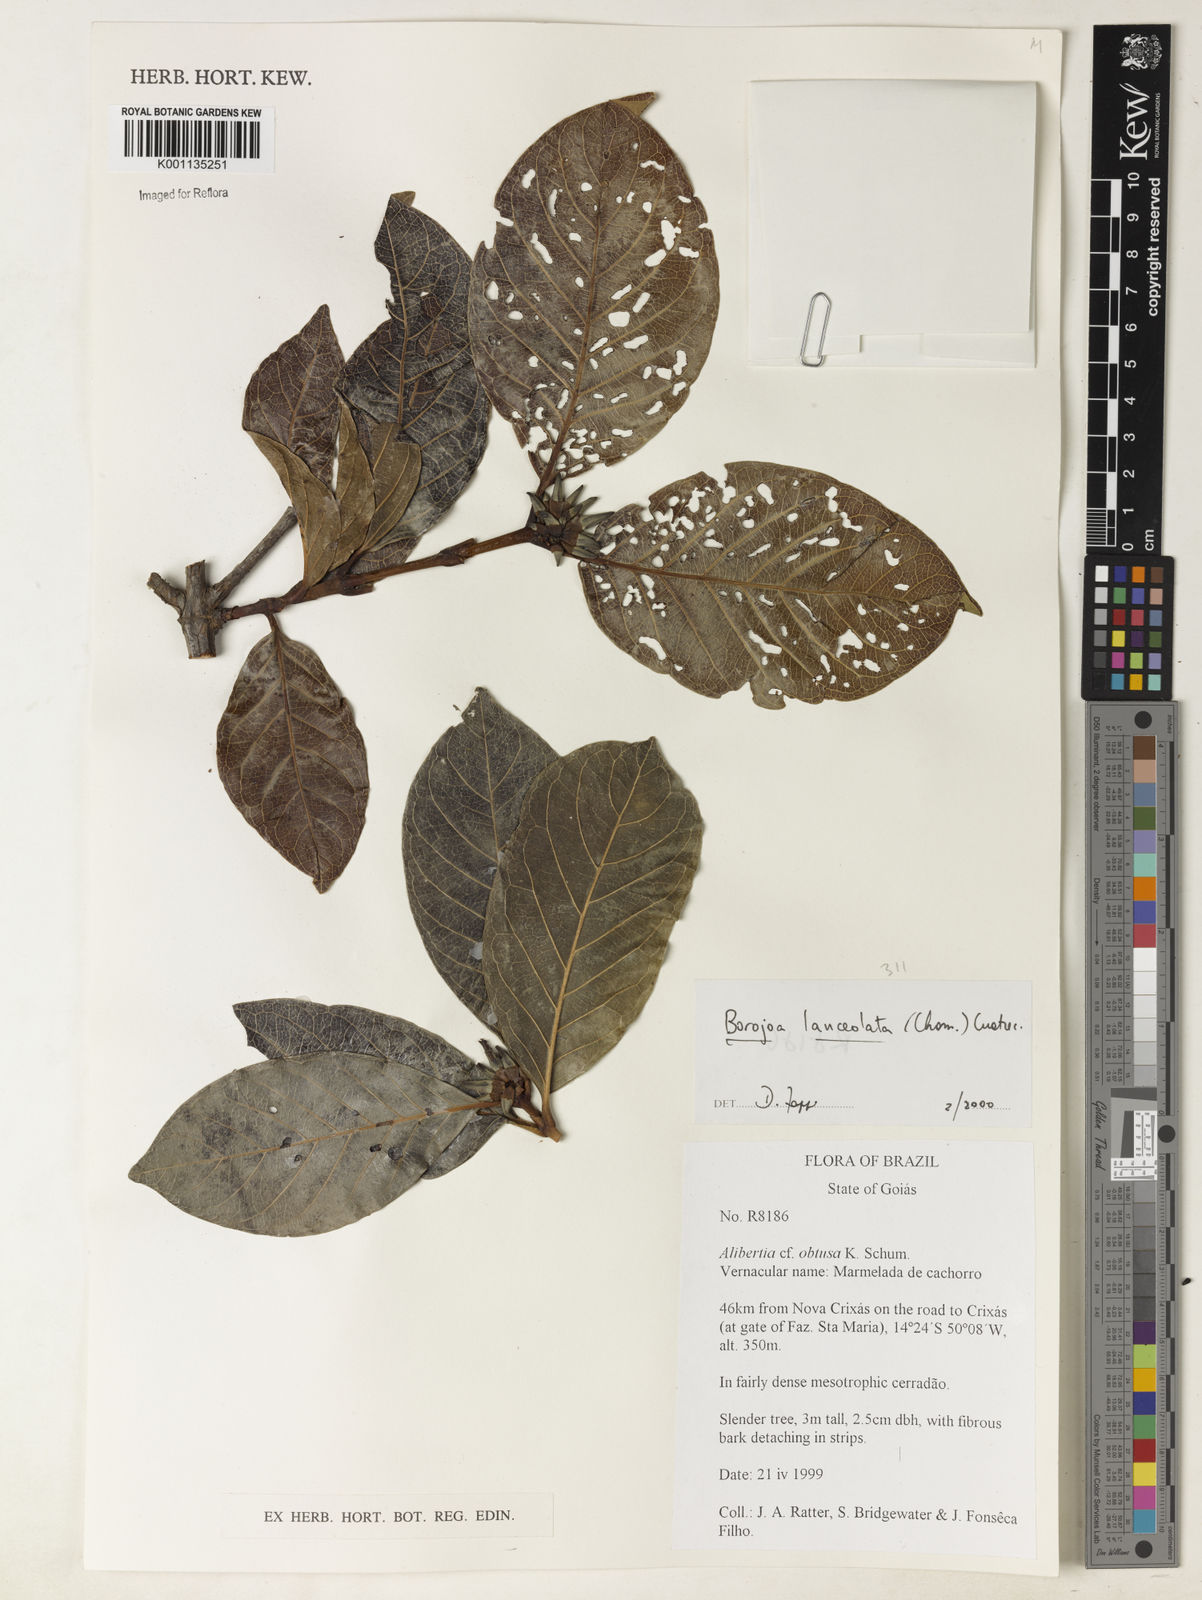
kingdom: Plantae
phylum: Tracheophyta
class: Magnoliopsida
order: Gentianales
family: Rubiaceae
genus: Alibertia
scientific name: Alibertia edulis
